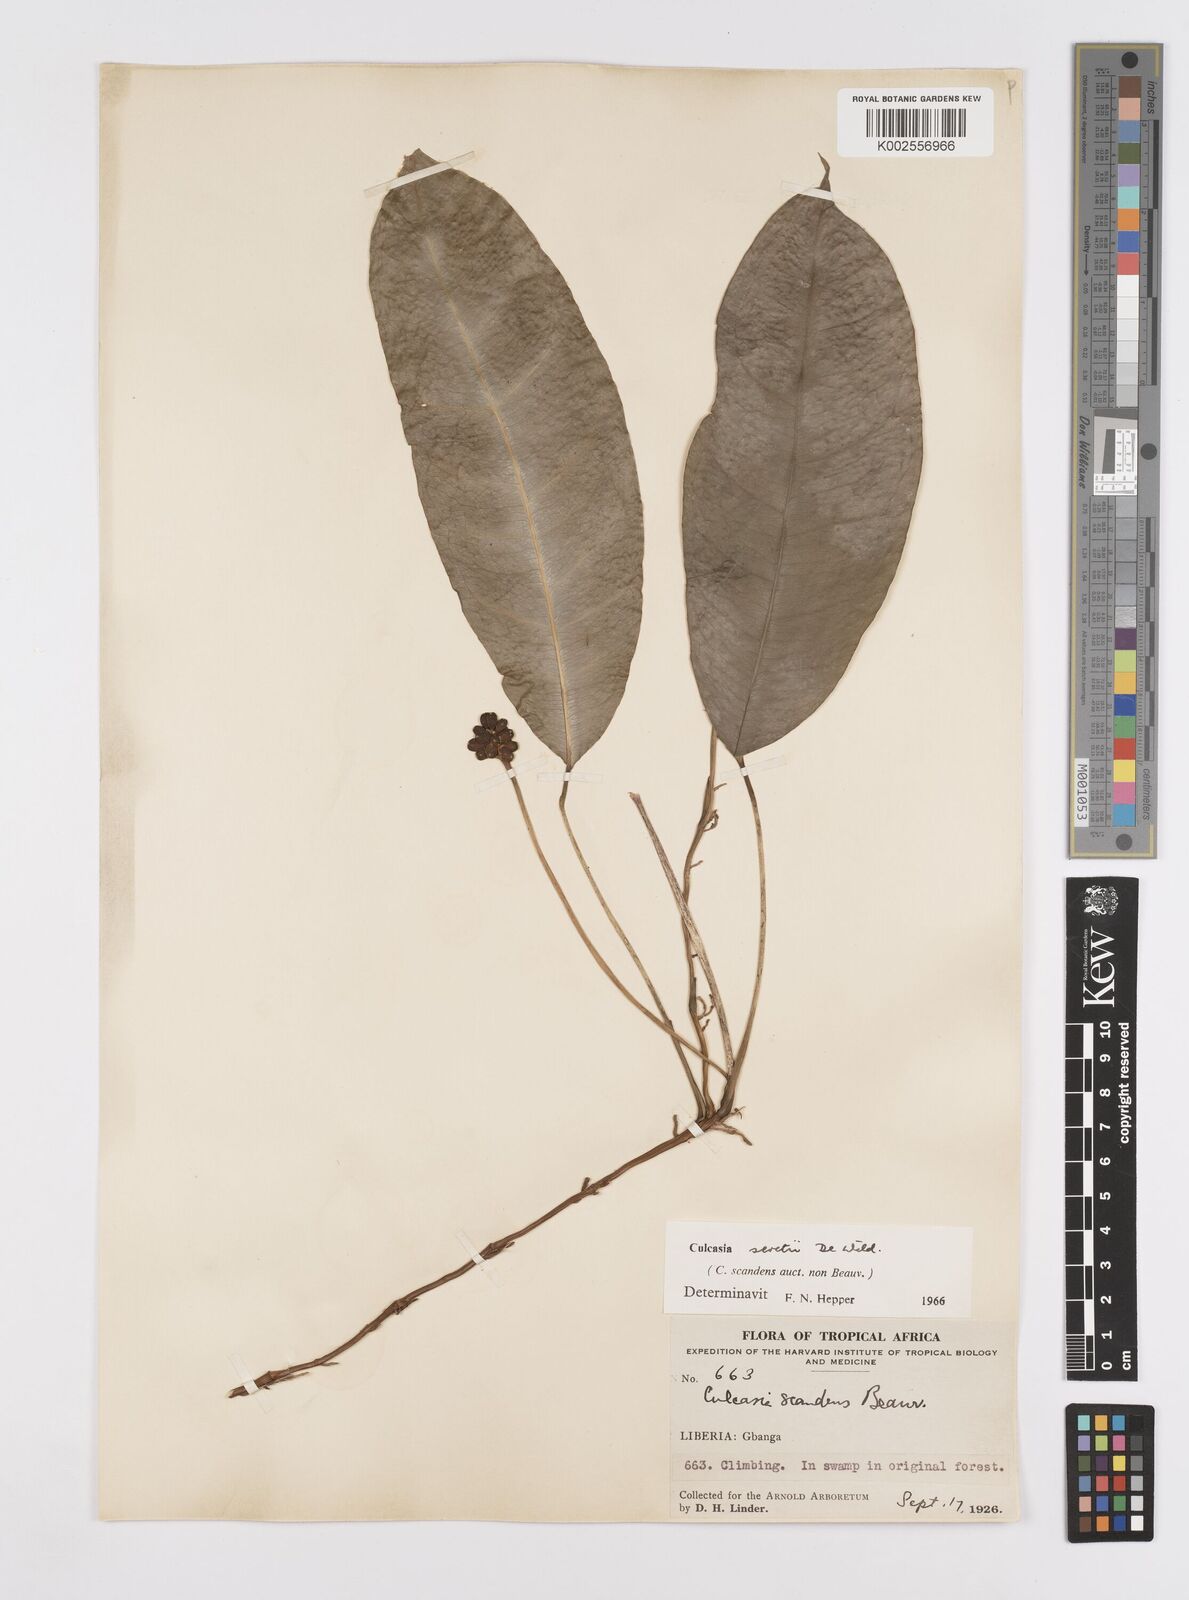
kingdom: Plantae
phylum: Tracheophyta
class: Liliopsida
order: Alismatales
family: Araceae
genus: Culcasia
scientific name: Culcasia seretii
